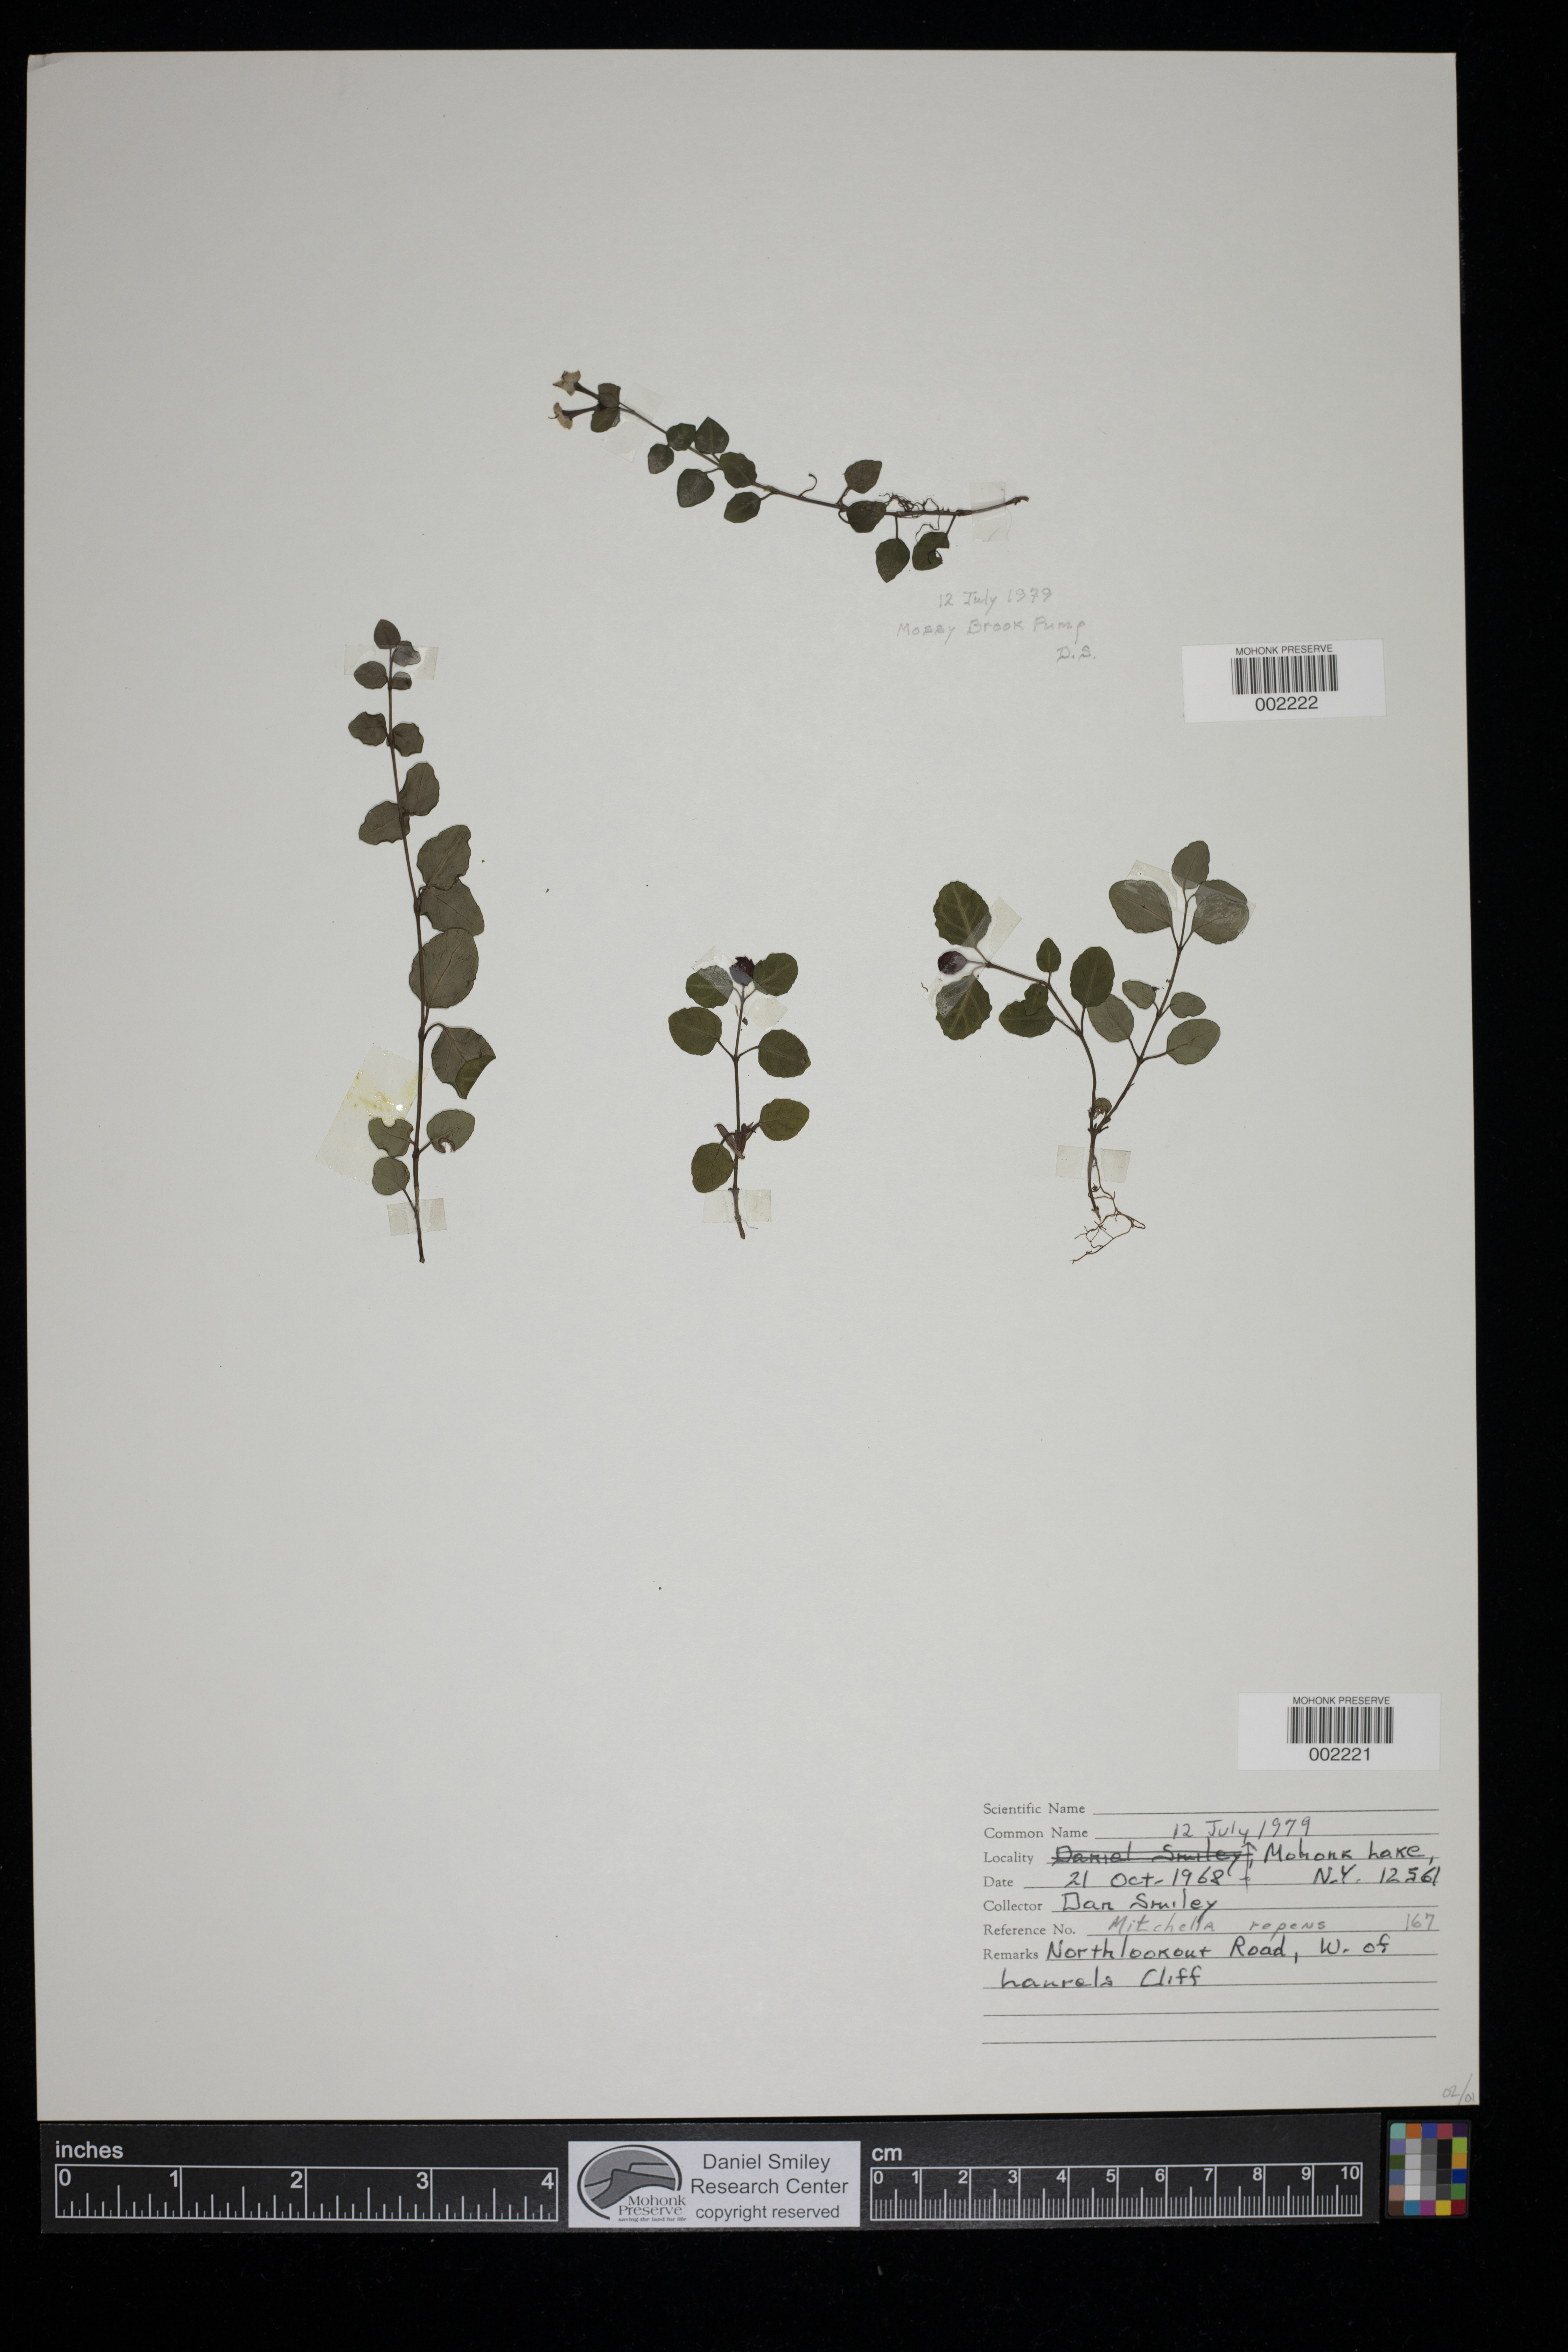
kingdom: Plantae
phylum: Tracheophyta
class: Magnoliopsida
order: Gentianales
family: Rubiaceae
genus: Mitchella
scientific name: Mitchella repens
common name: Partridge-berry
